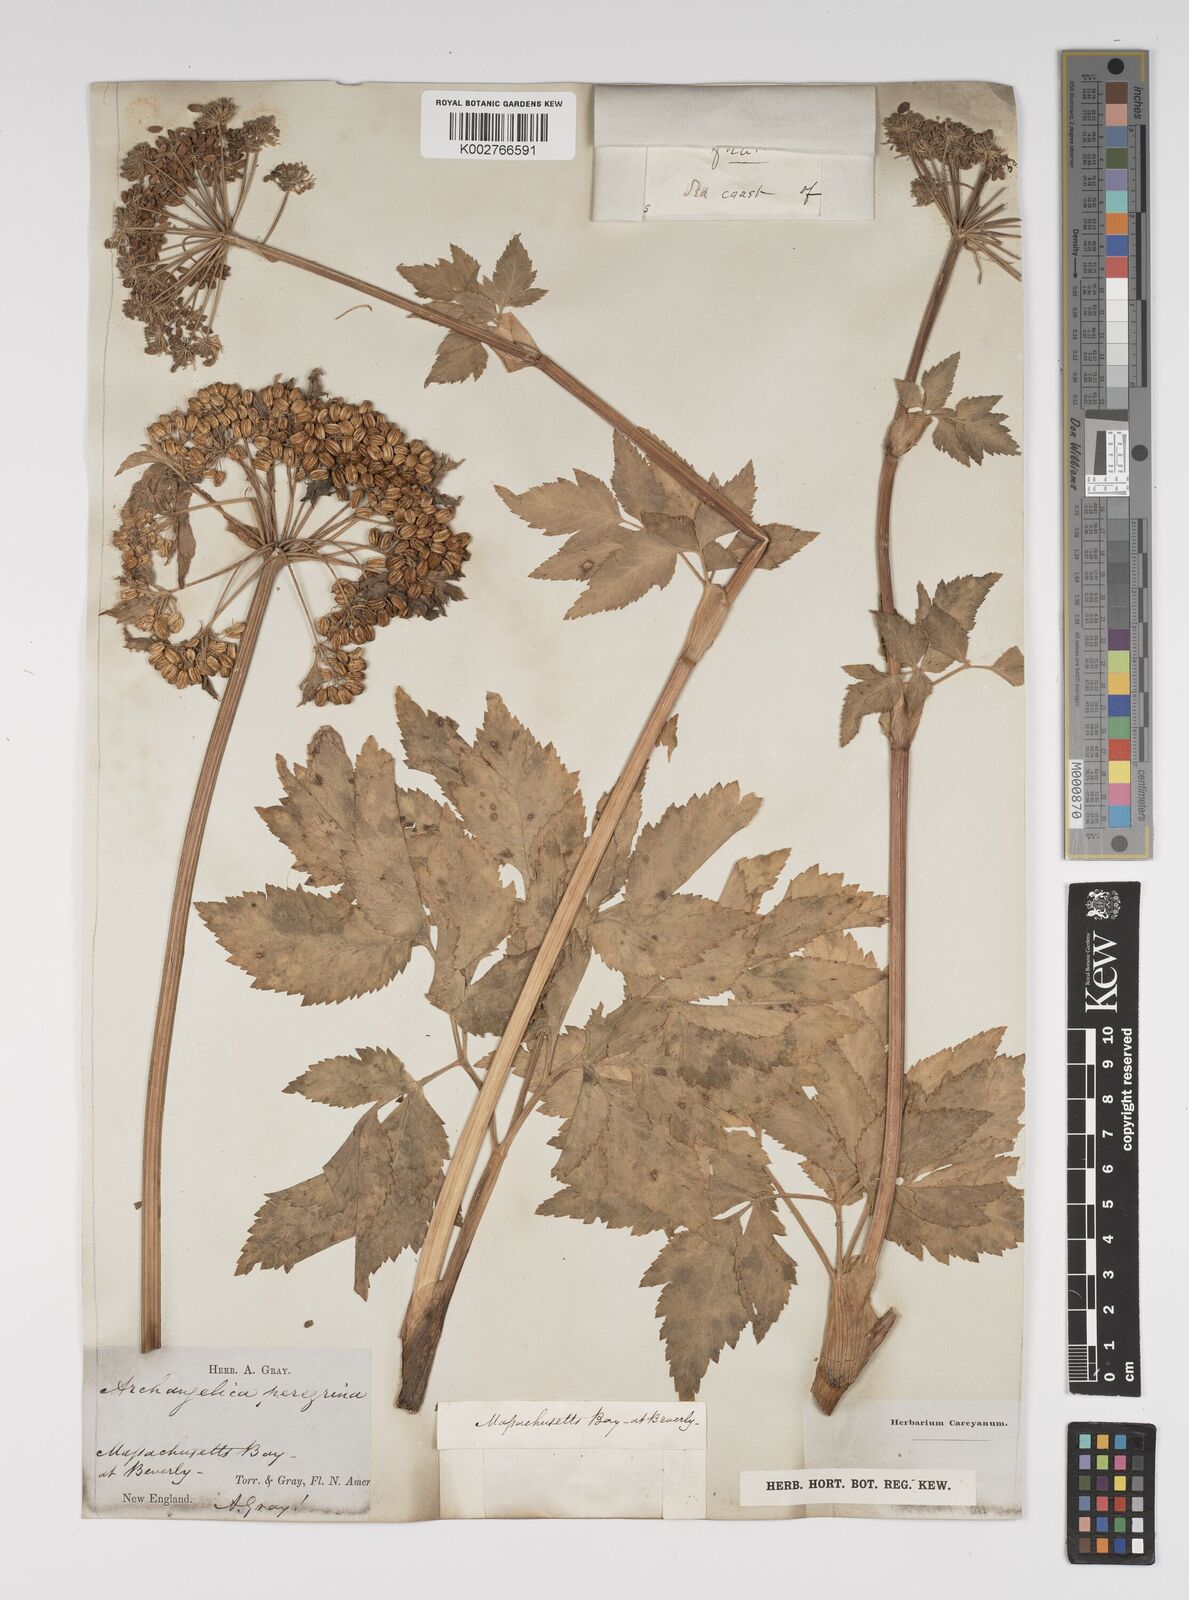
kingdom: Plantae
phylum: Tracheophyta
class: Magnoliopsida
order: Apiales
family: Apiaceae
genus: Angelica
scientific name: Angelica lucida
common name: Seabeach angelica
